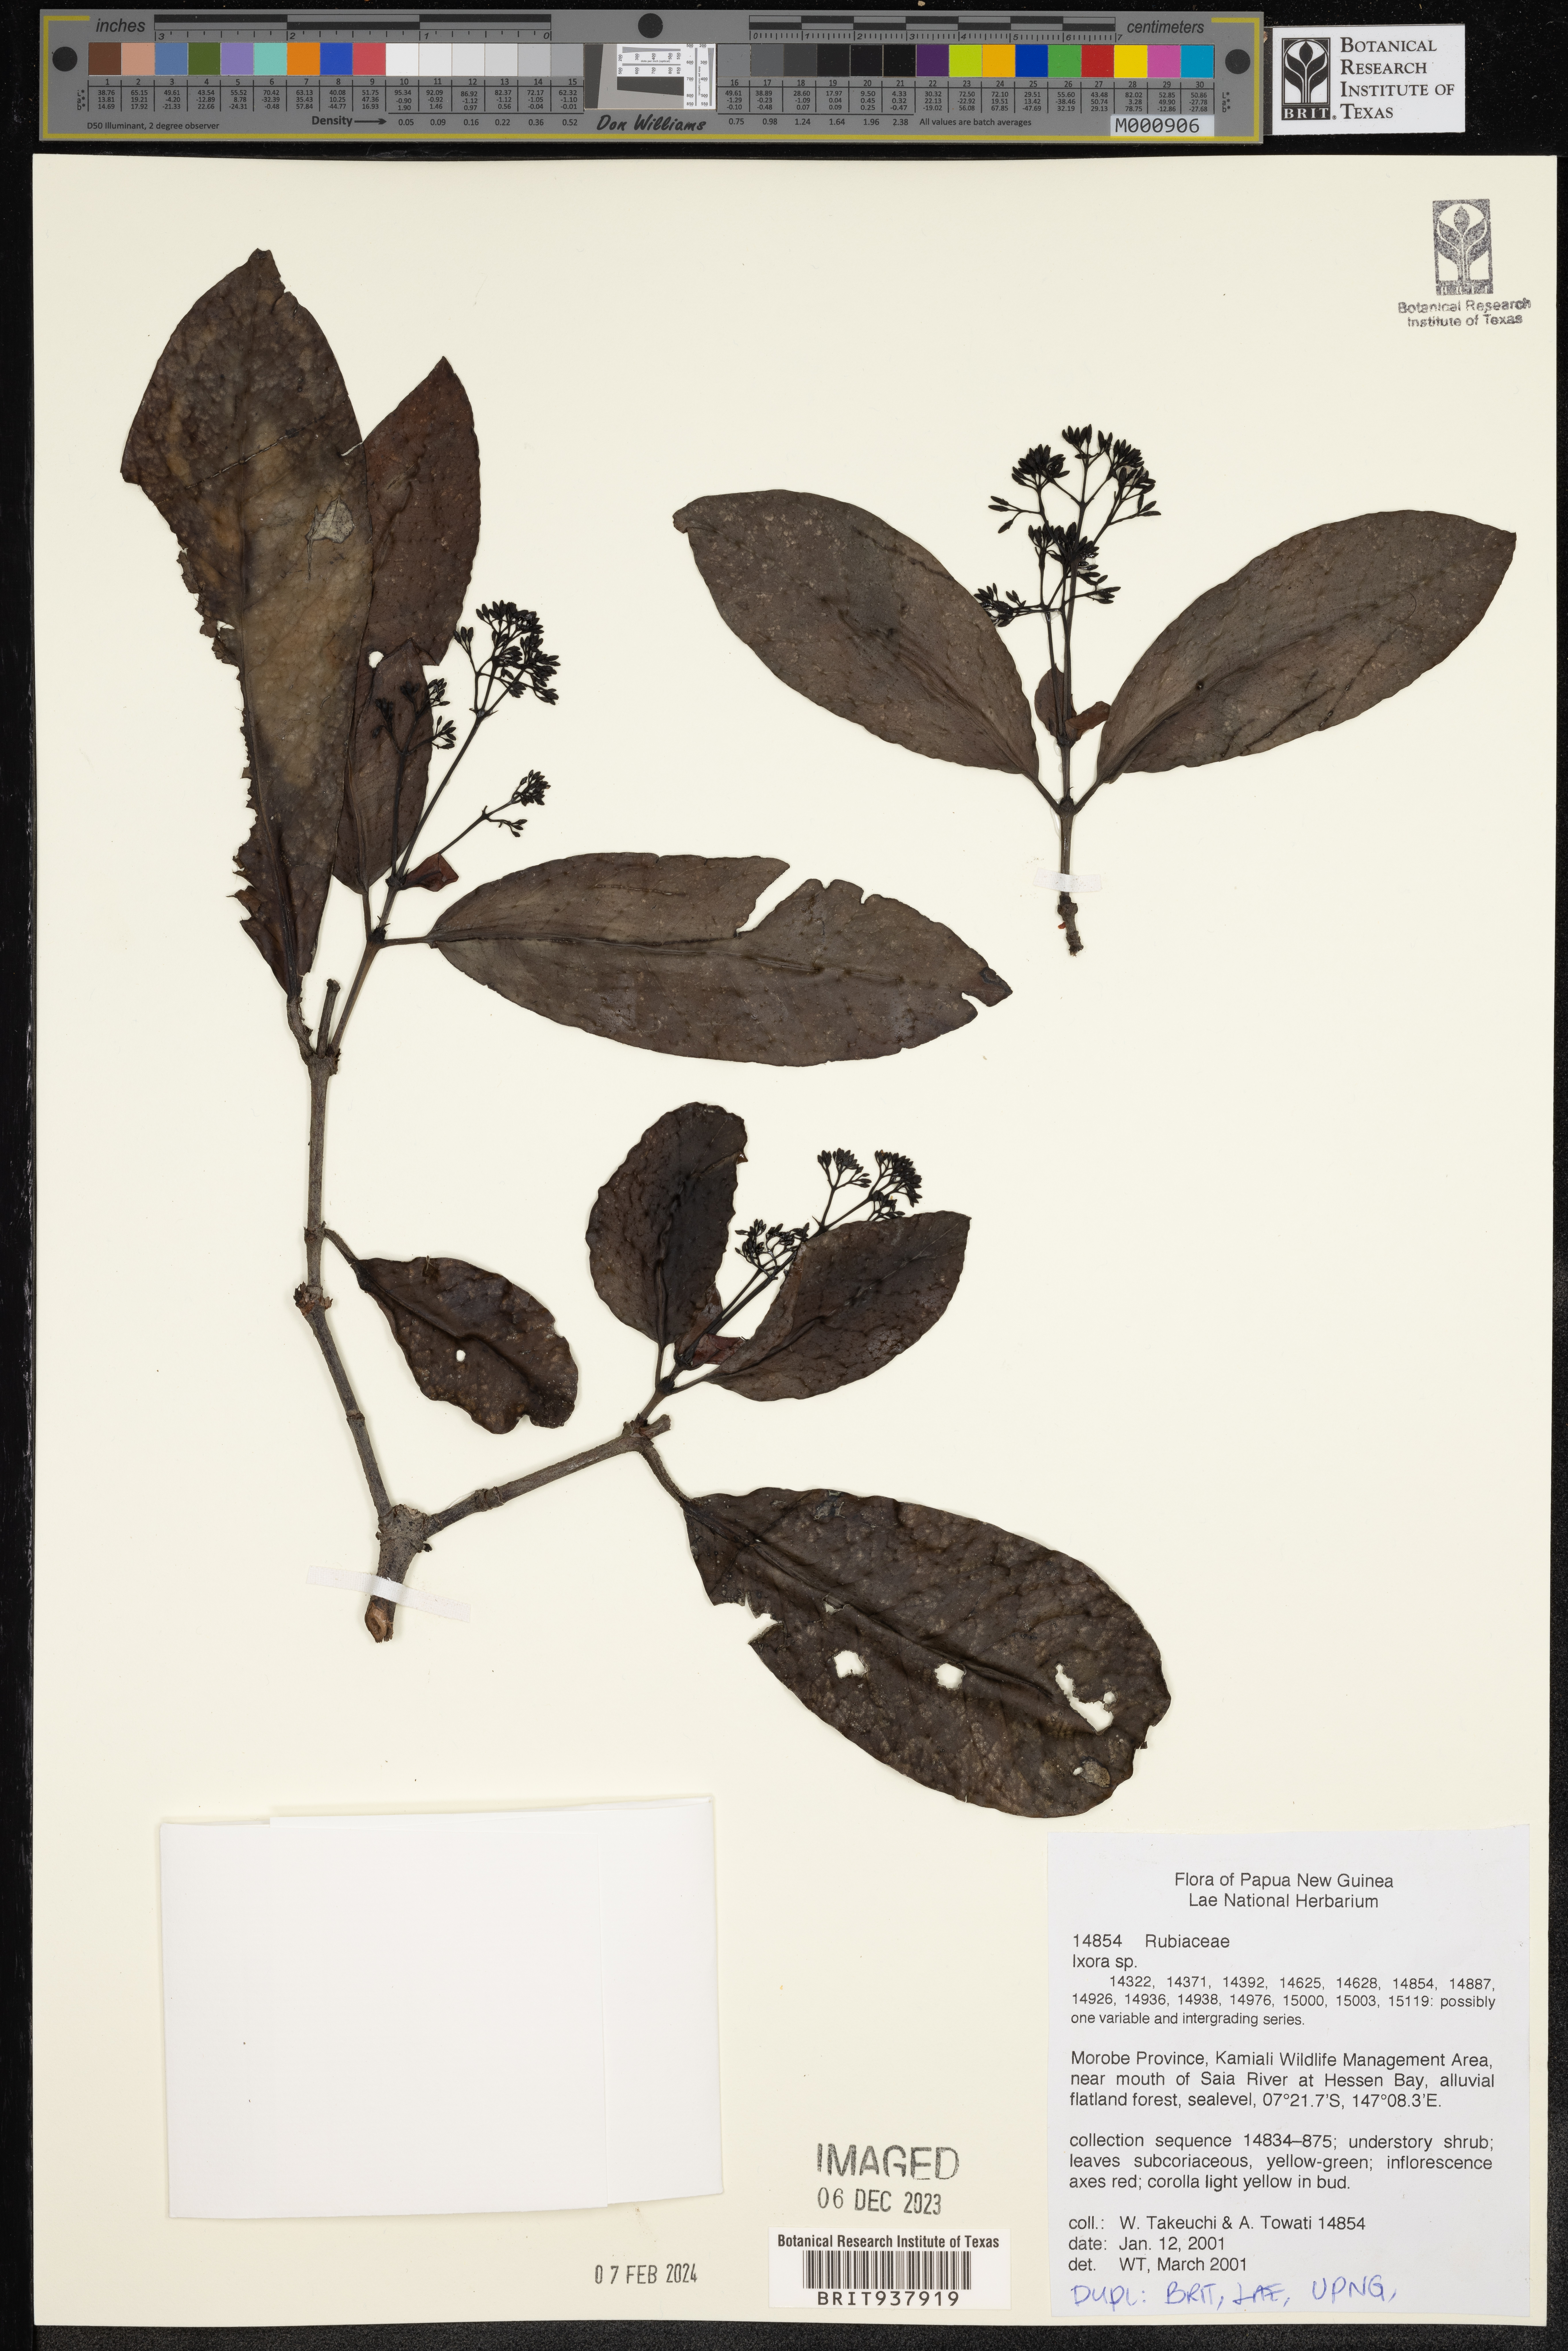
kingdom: Plantae
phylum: Tracheophyta
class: Magnoliopsida
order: Gentianales
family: Rubiaceae
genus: Ixora
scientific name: Ixora
